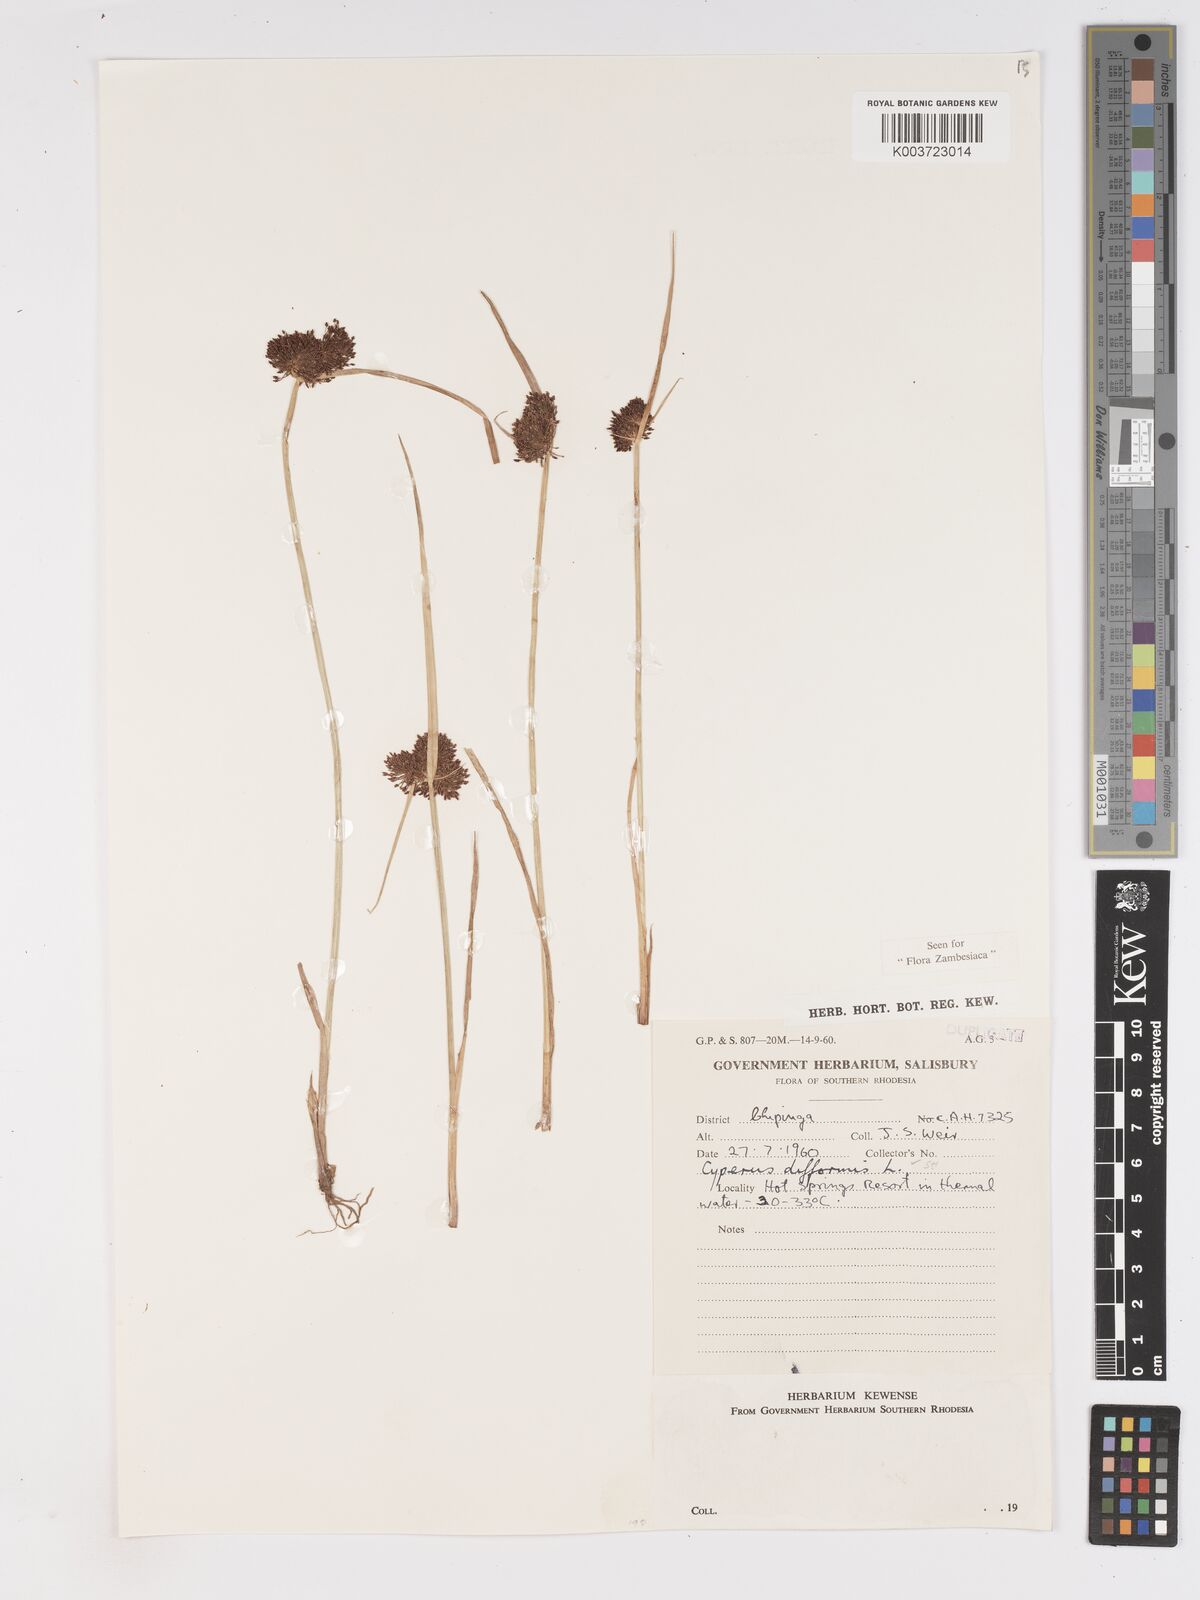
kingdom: Plantae
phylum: Tracheophyta
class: Liliopsida
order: Poales
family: Cyperaceae
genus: Cyperus
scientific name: Cyperus difformis
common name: Variable flatsedge
